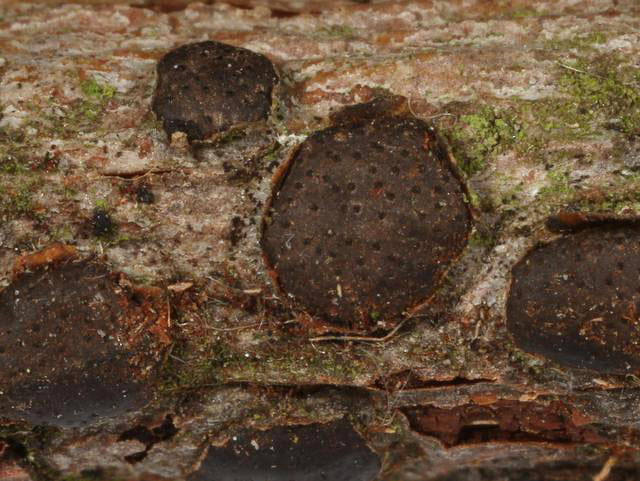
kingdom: Fungi
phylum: Ascomycota
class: Sordariomycetes
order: Xylariales
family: Diatrypaceae
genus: Diatrype
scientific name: Diatrype bullata
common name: pile-kulskorpe
